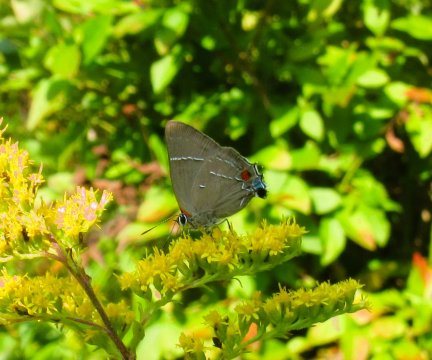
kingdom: Animalia
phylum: Arthropoda
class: Insecta
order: Lepidoptera
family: Lycaenidae
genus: Parrhasius
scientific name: Parrhasius m-album
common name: White-m Hairstreak
